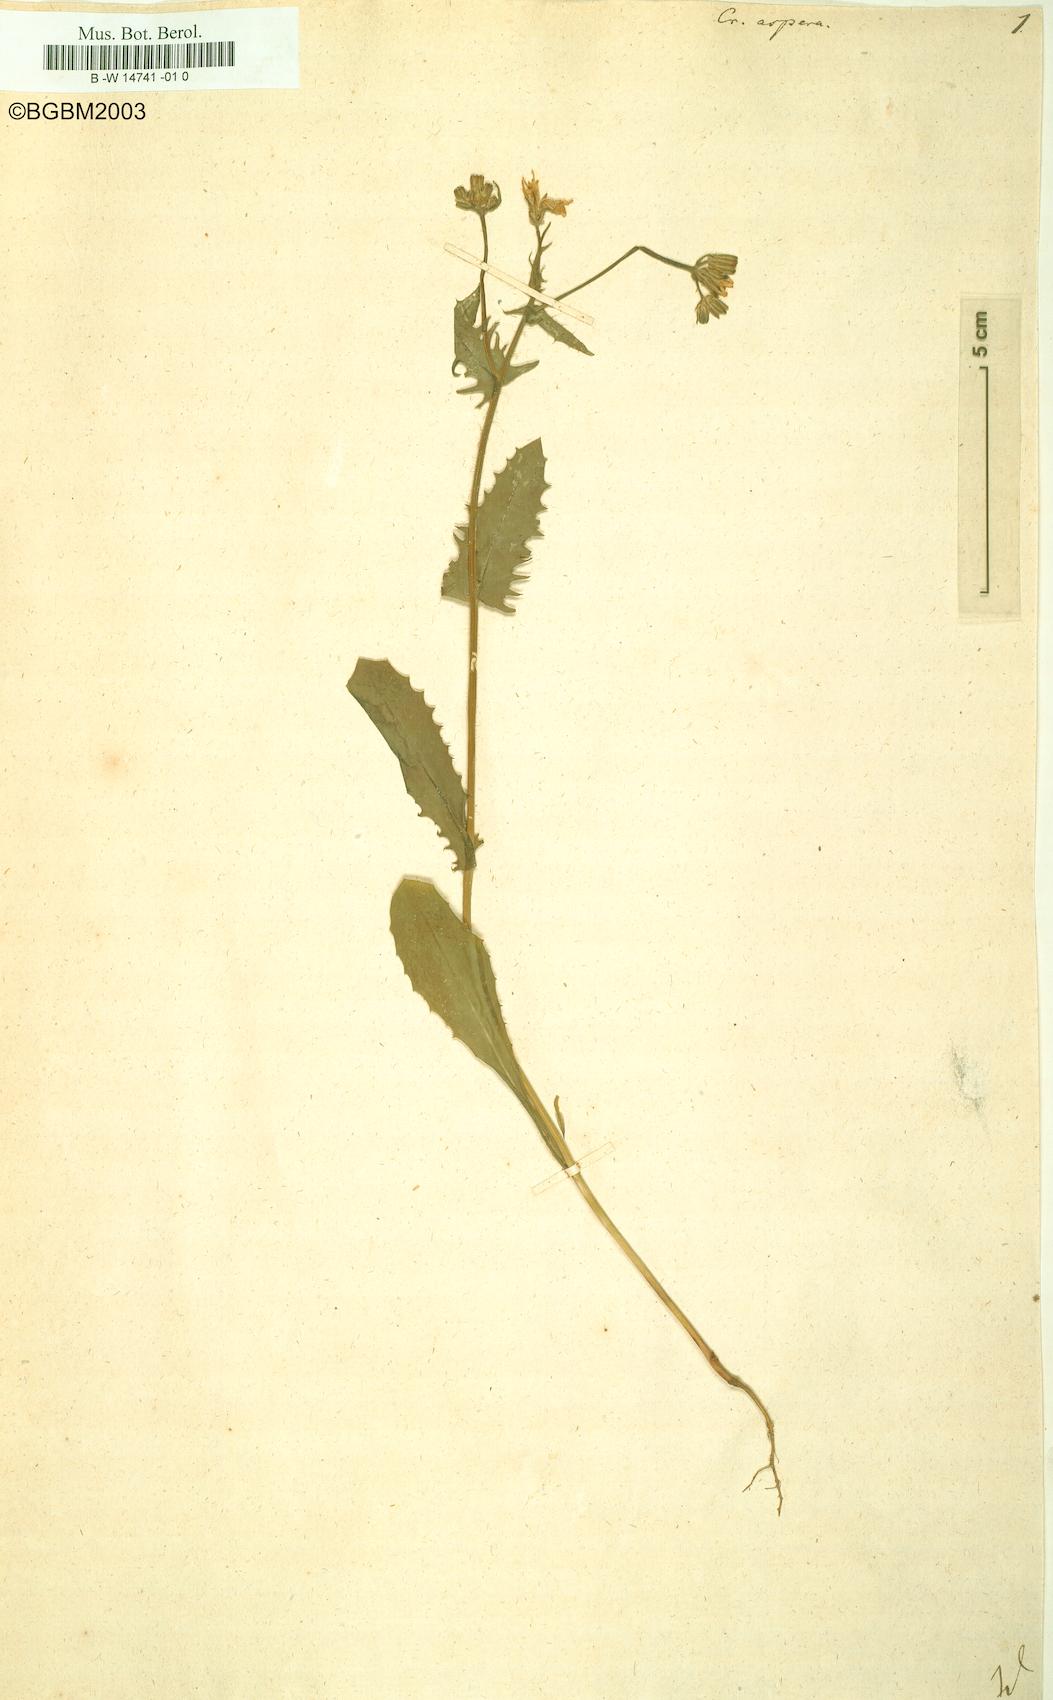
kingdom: Plantae
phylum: Tracheophyta
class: Magnoliopsida
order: Asterales
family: Asteraceae
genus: Crepis
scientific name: Crepis aspera
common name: Hawk's-beard
